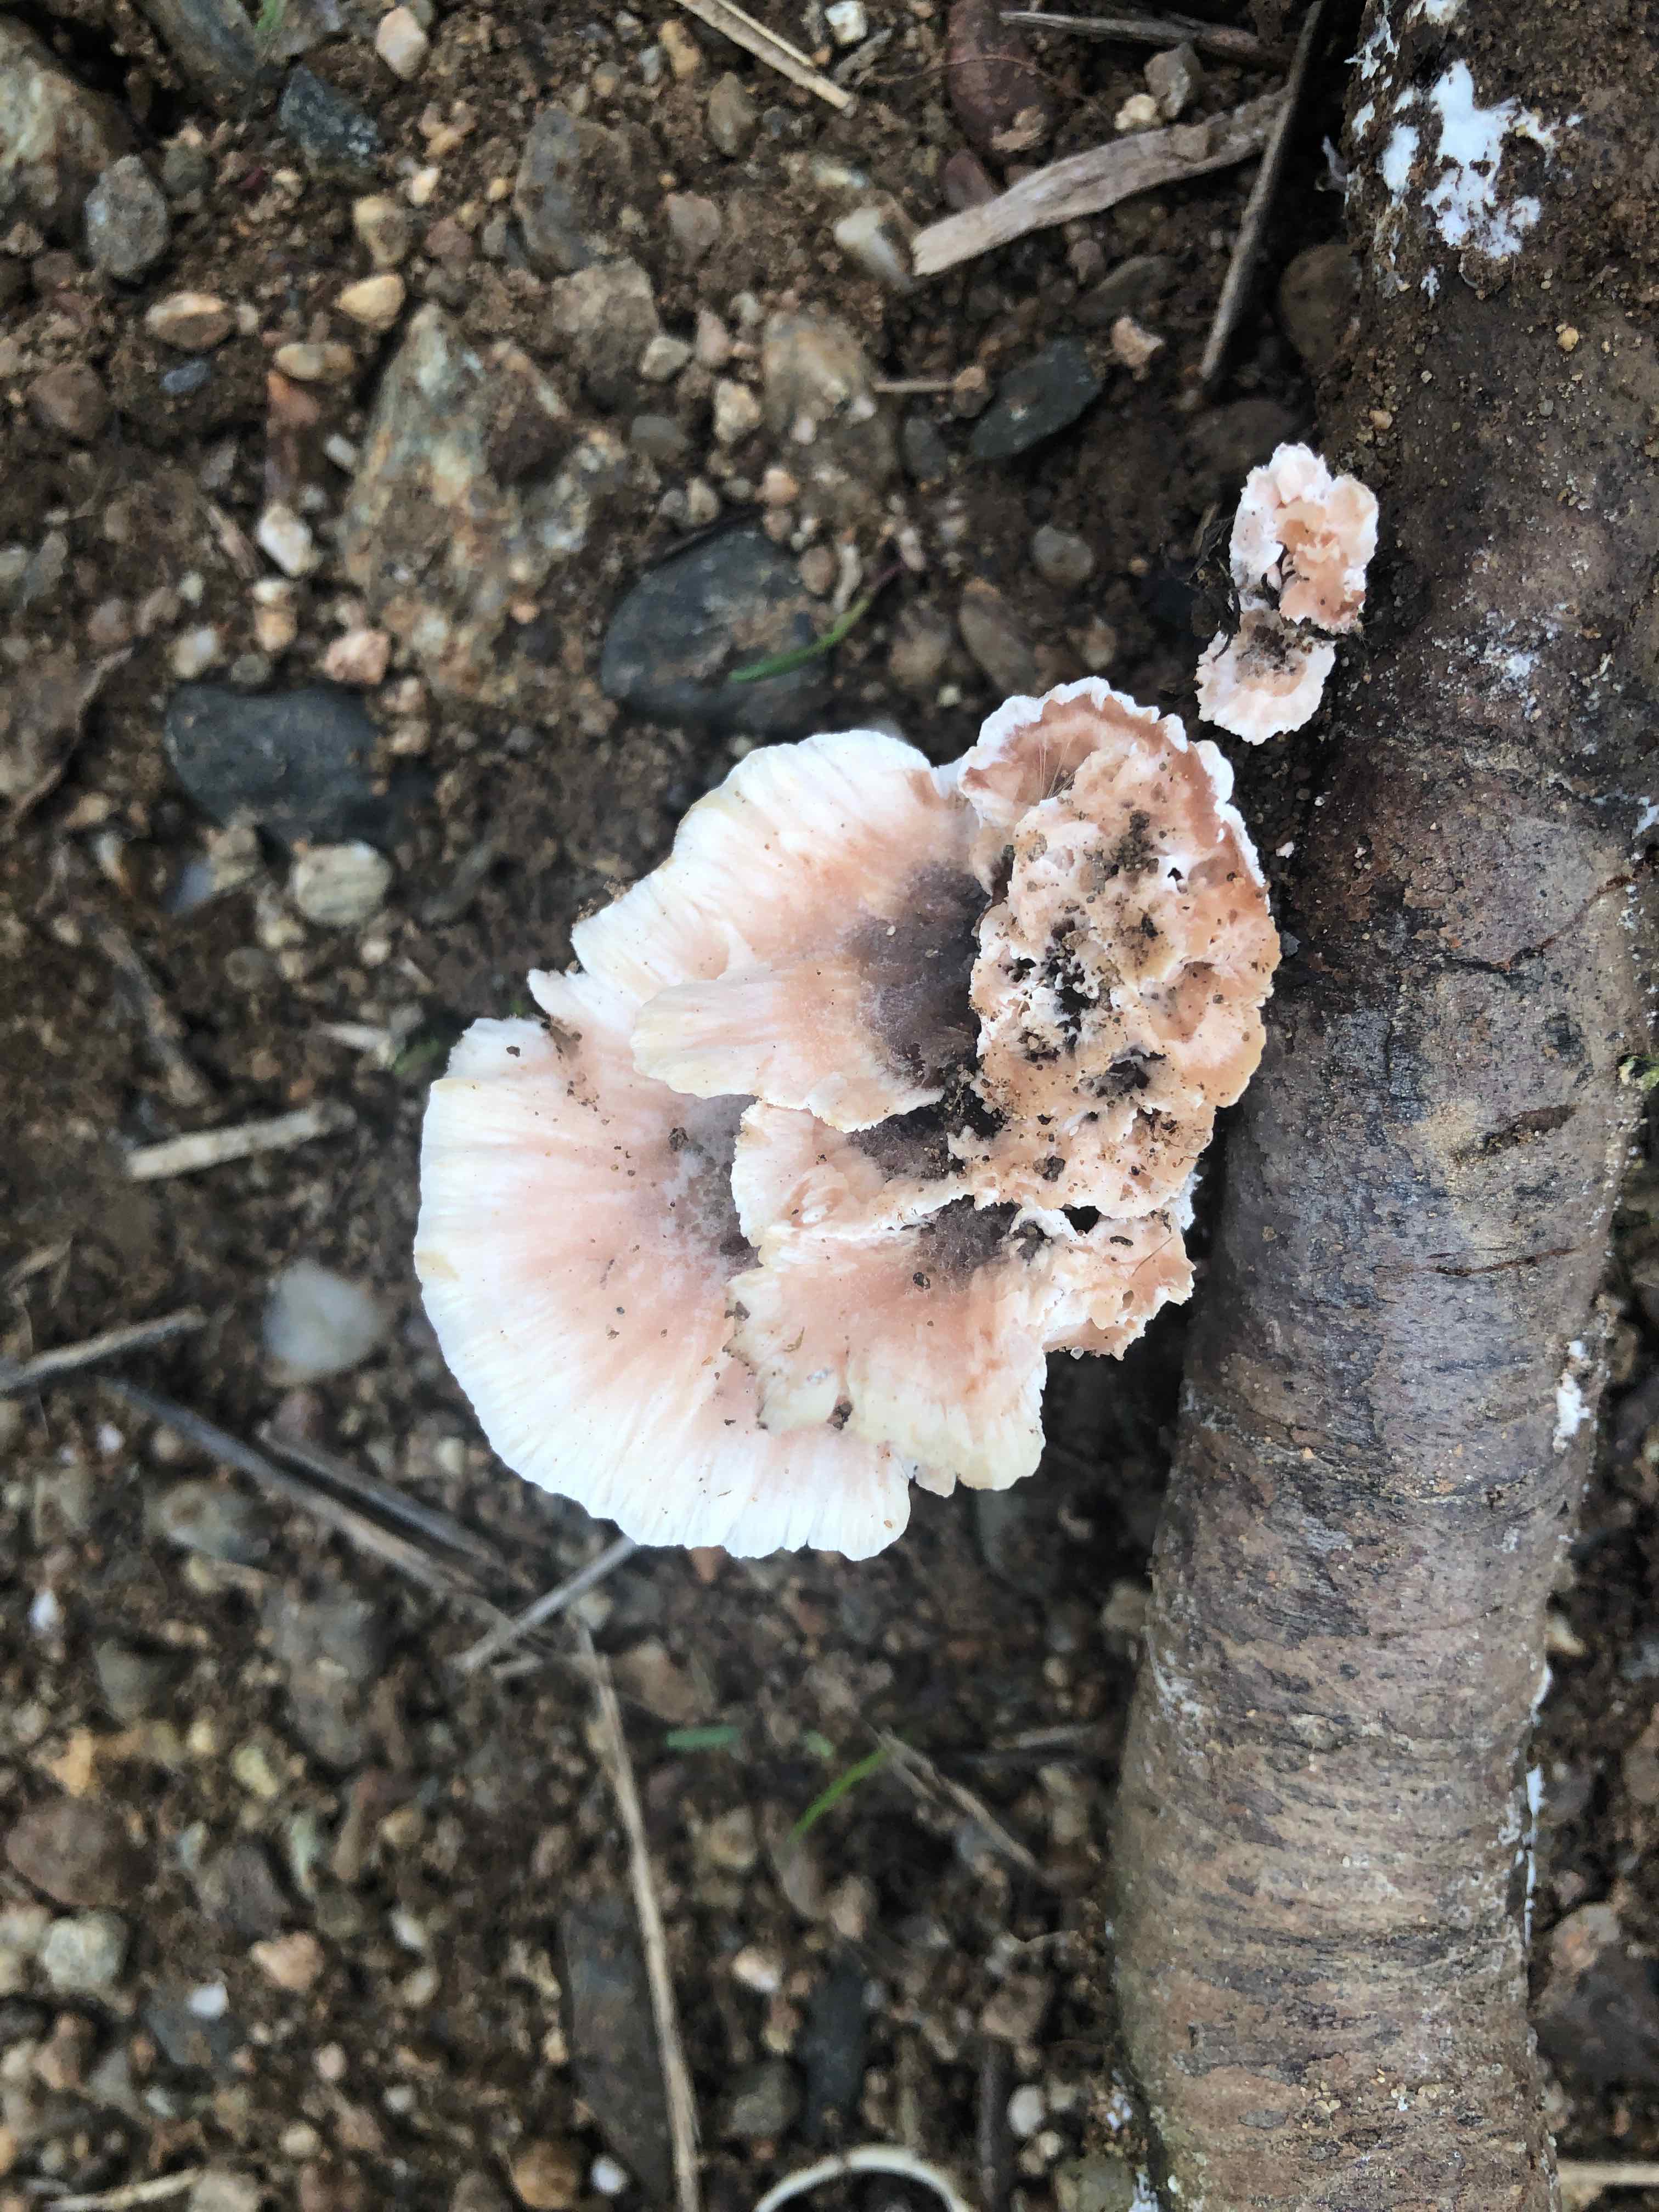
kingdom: Fungi
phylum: Basidiomycota
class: Agaricomycetes
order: Polyporales
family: Podoscyphaceae
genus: Abortiporus
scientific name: Abortiporus biennis
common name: rødmende pjalteporesvamp
